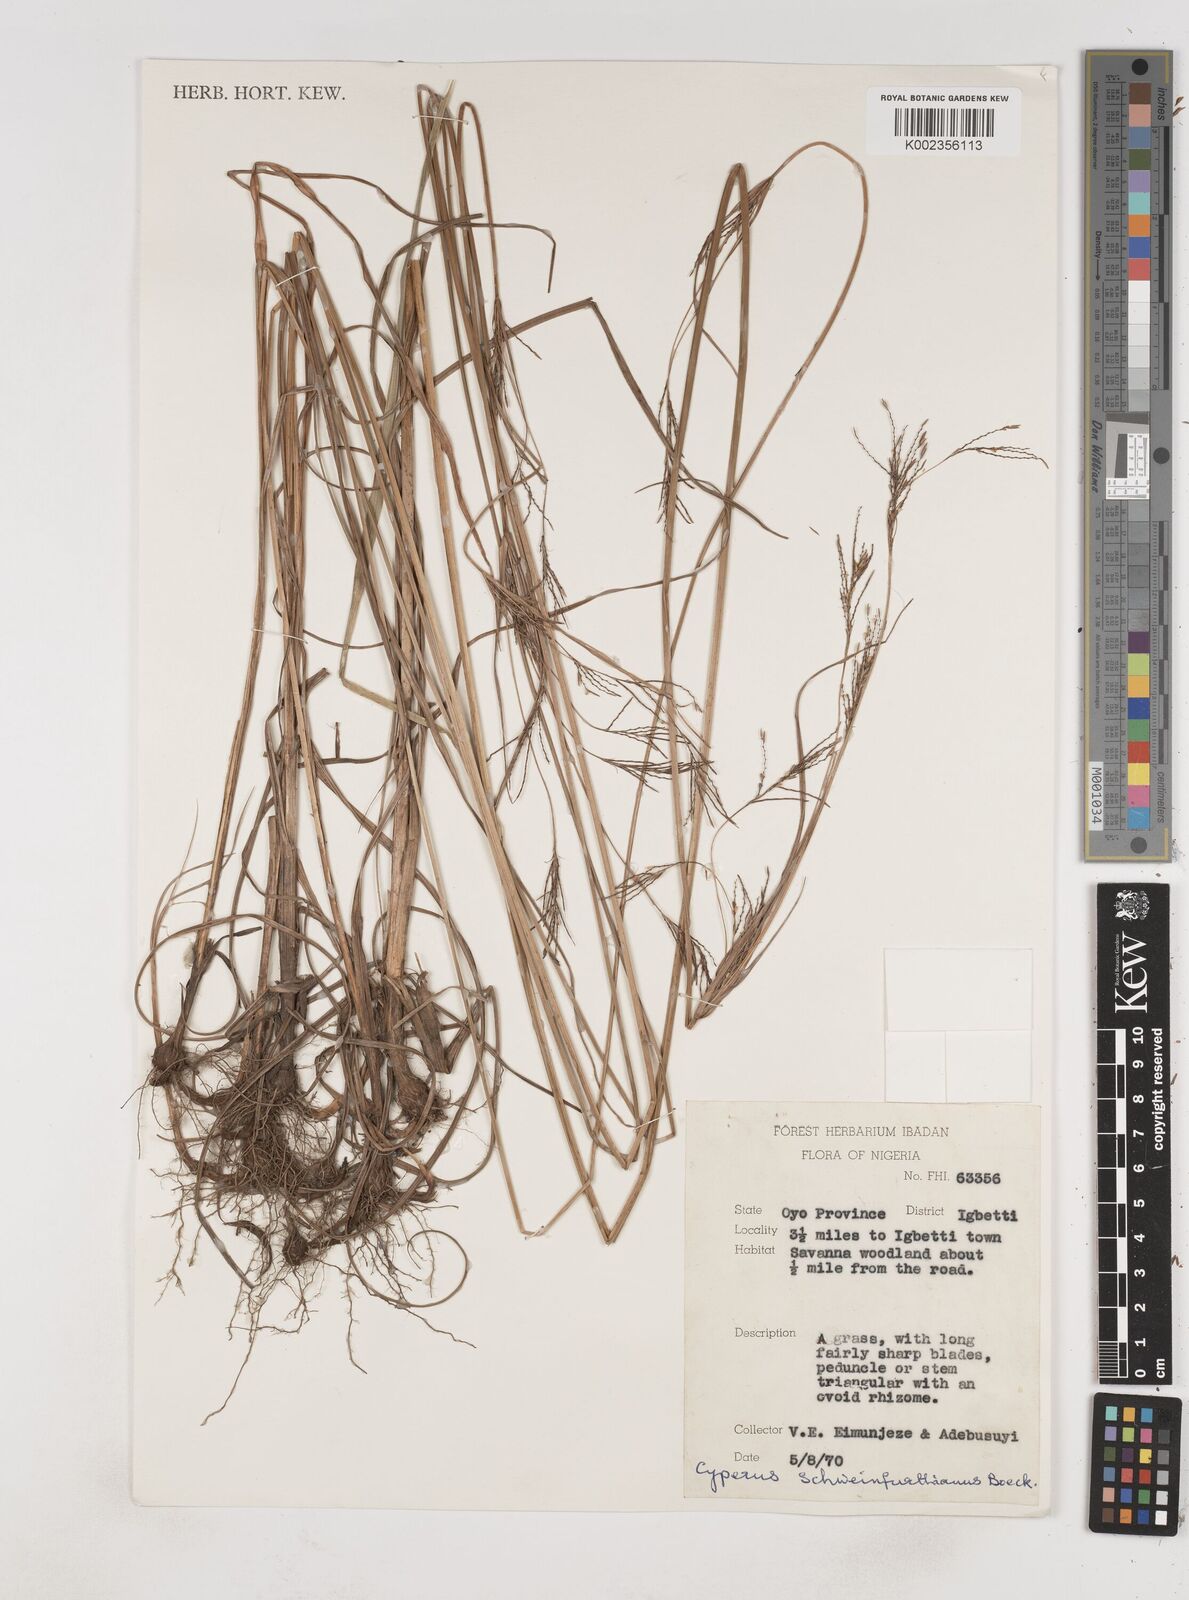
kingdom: Plantae
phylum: Tracheophyta
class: Liliopsida
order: Poales
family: Cyperaceae
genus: Cyperus
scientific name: Cyperus tenuiculmis
